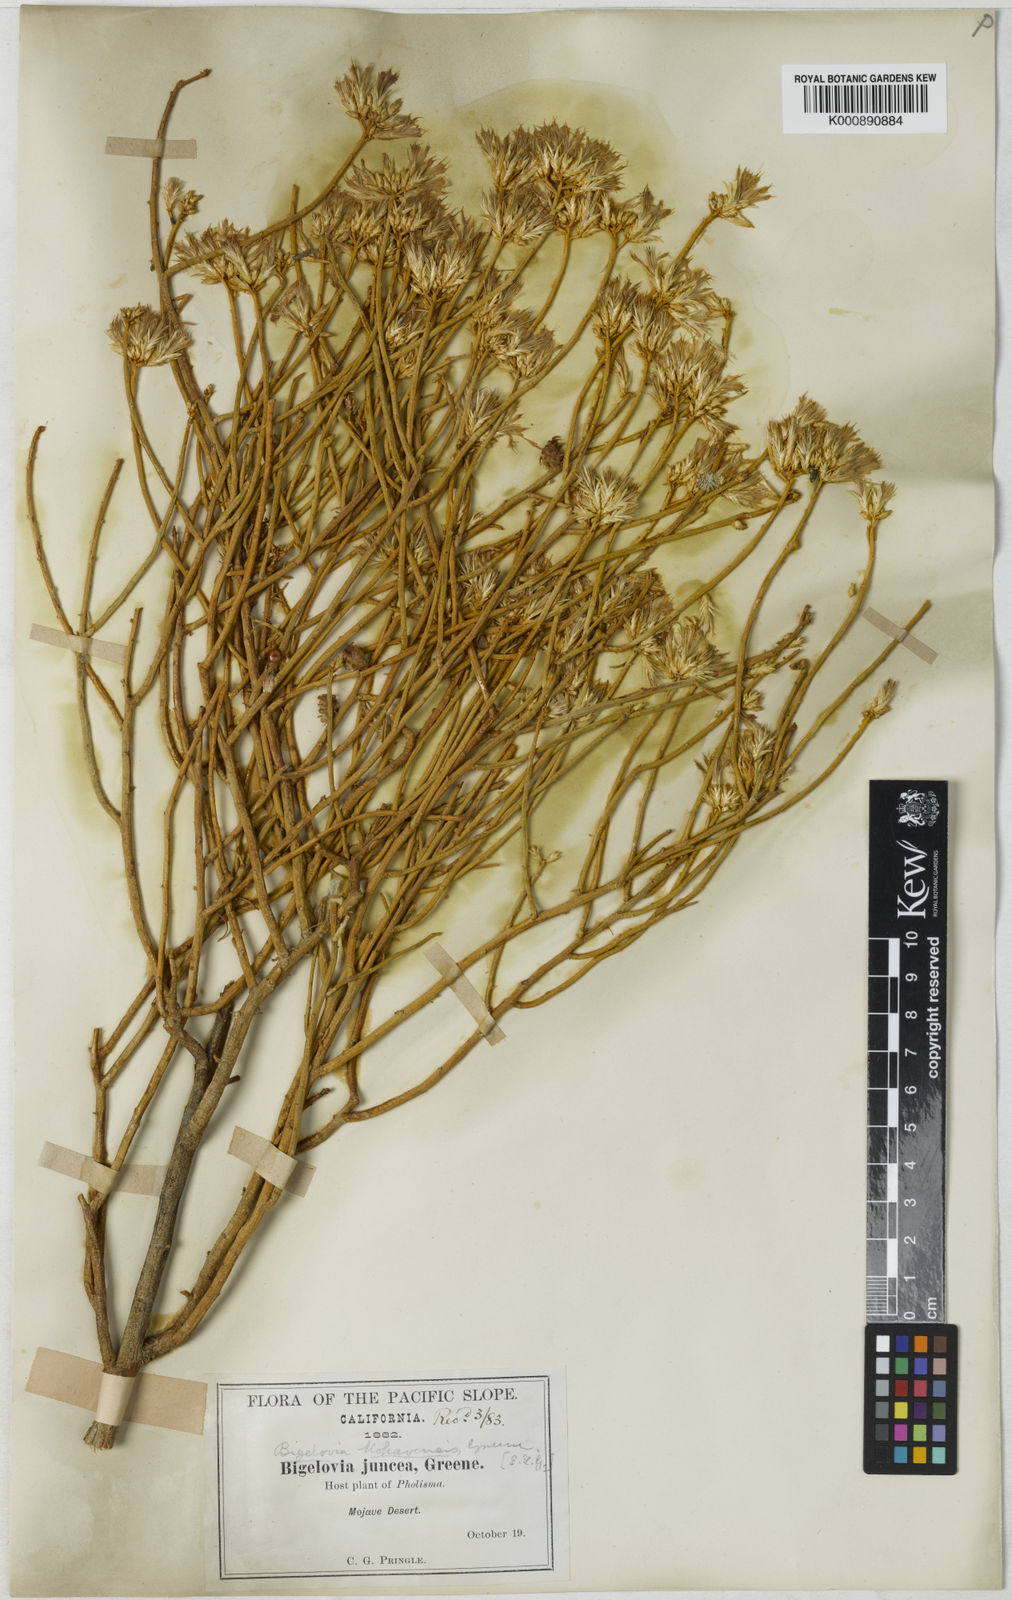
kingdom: Plantae
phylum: Tracheophyta
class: Magnoliopsida
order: Asterales
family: Asteraceae
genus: Ericameria
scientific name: Ericameria nauseosa
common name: Rubber rabbitbrush
